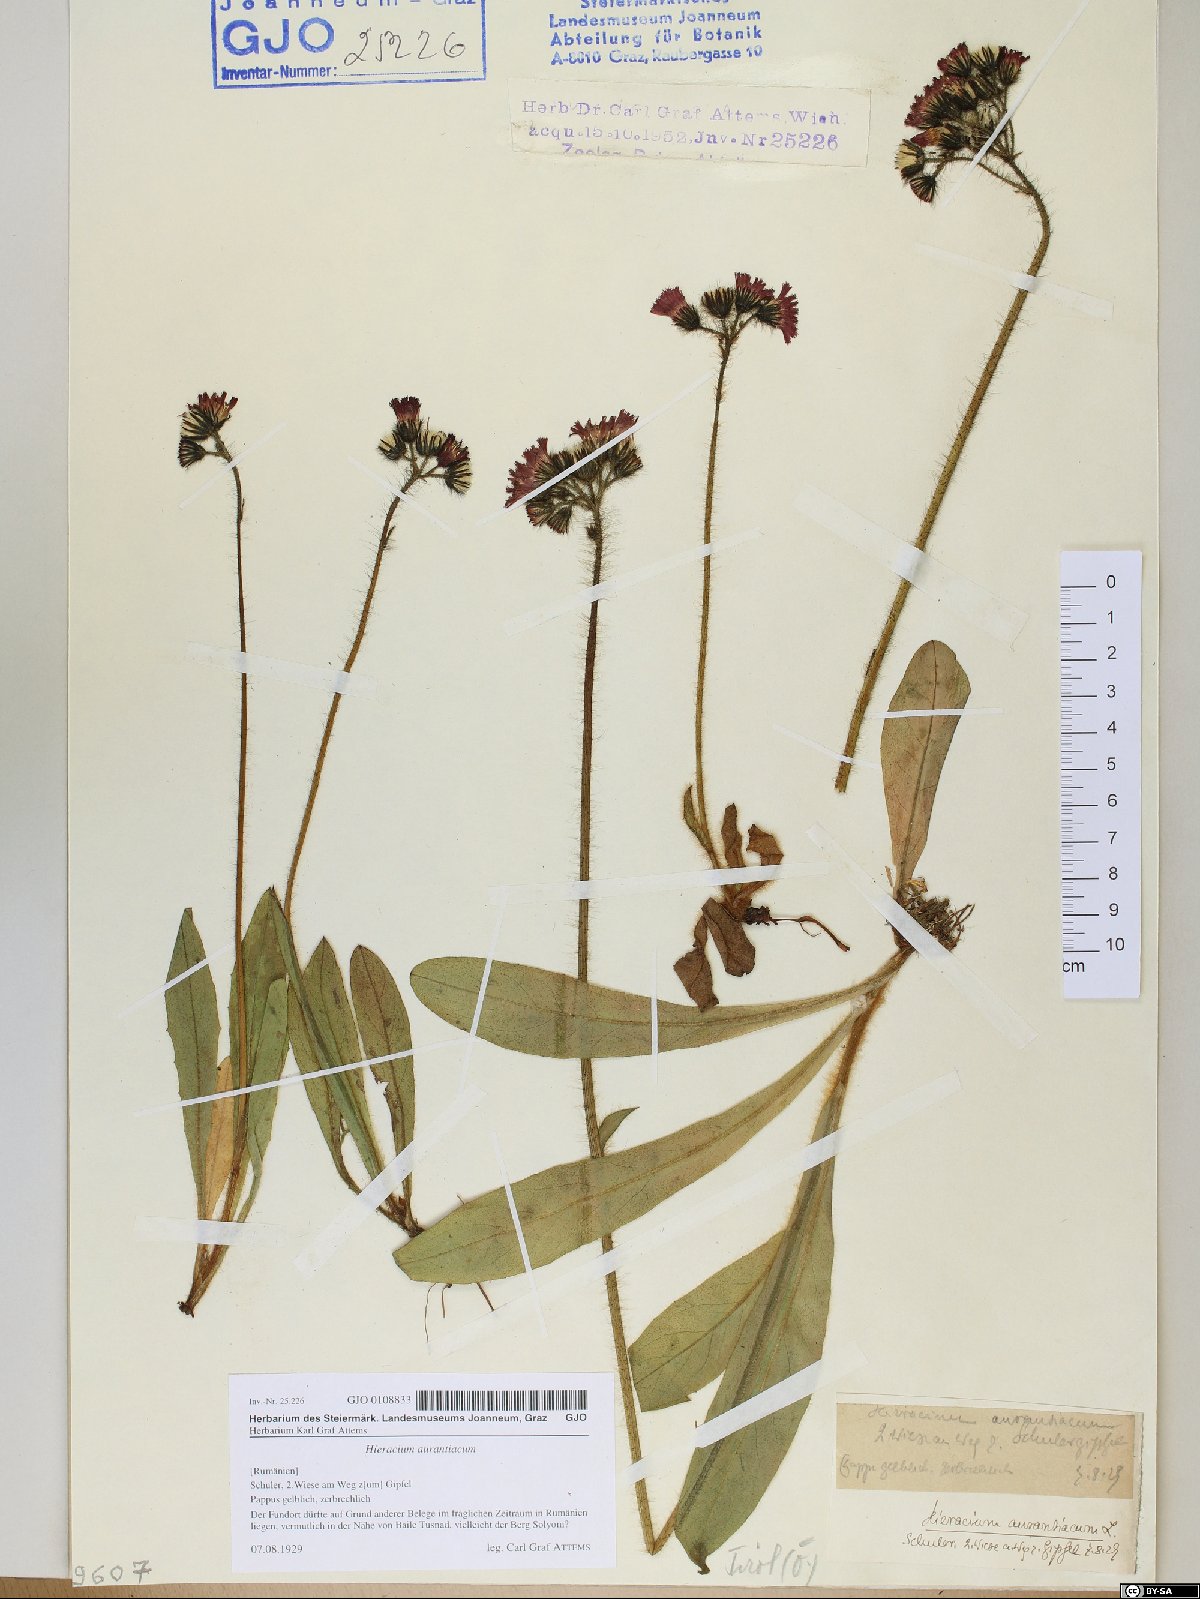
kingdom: Plantae
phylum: Tracheophyta
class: Magnoliopsida
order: Asterales
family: Asteraceae
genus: Pilosella
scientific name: Pilosella aurantiaca
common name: Fox-and-cubs
